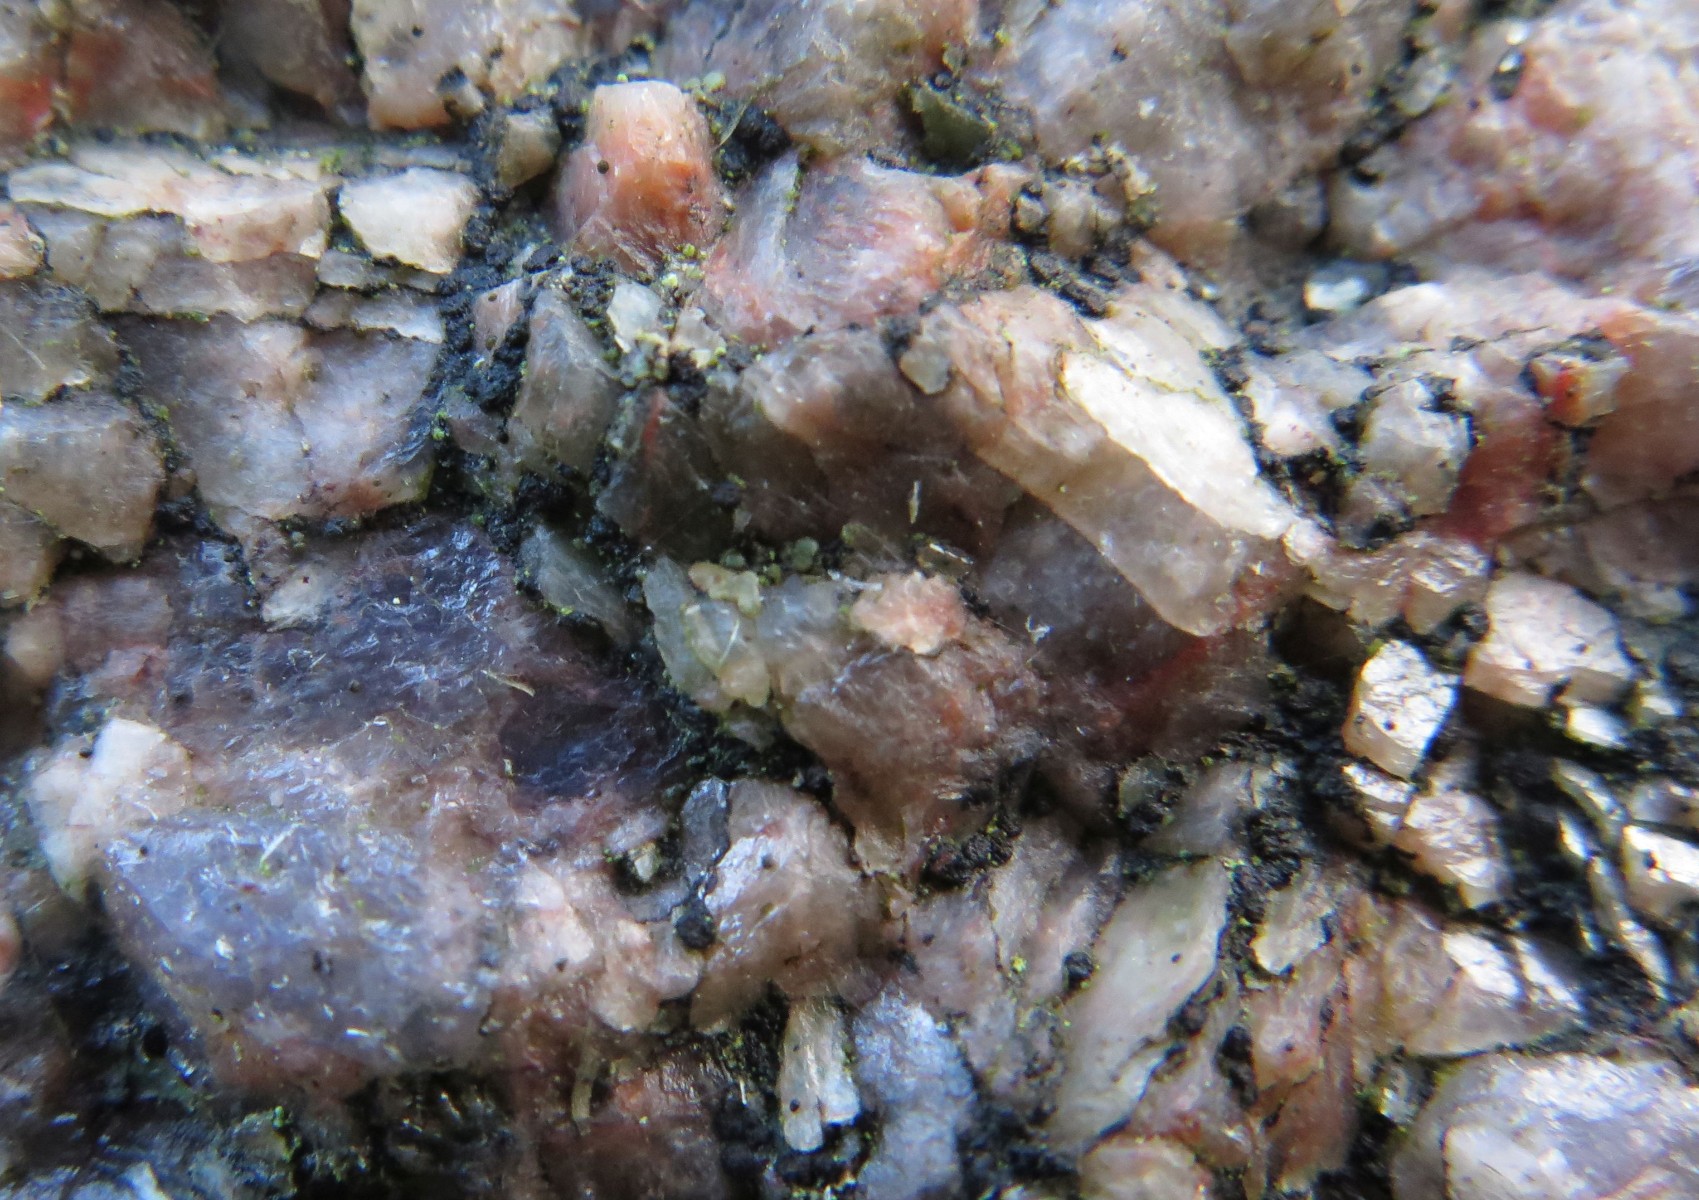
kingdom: Fungi
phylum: Ascomycota
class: Lecanoromycetes
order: Acarosporales
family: Acarosporaceae
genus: Acarospora
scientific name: Acarospora privigna
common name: sort foldekantlav
